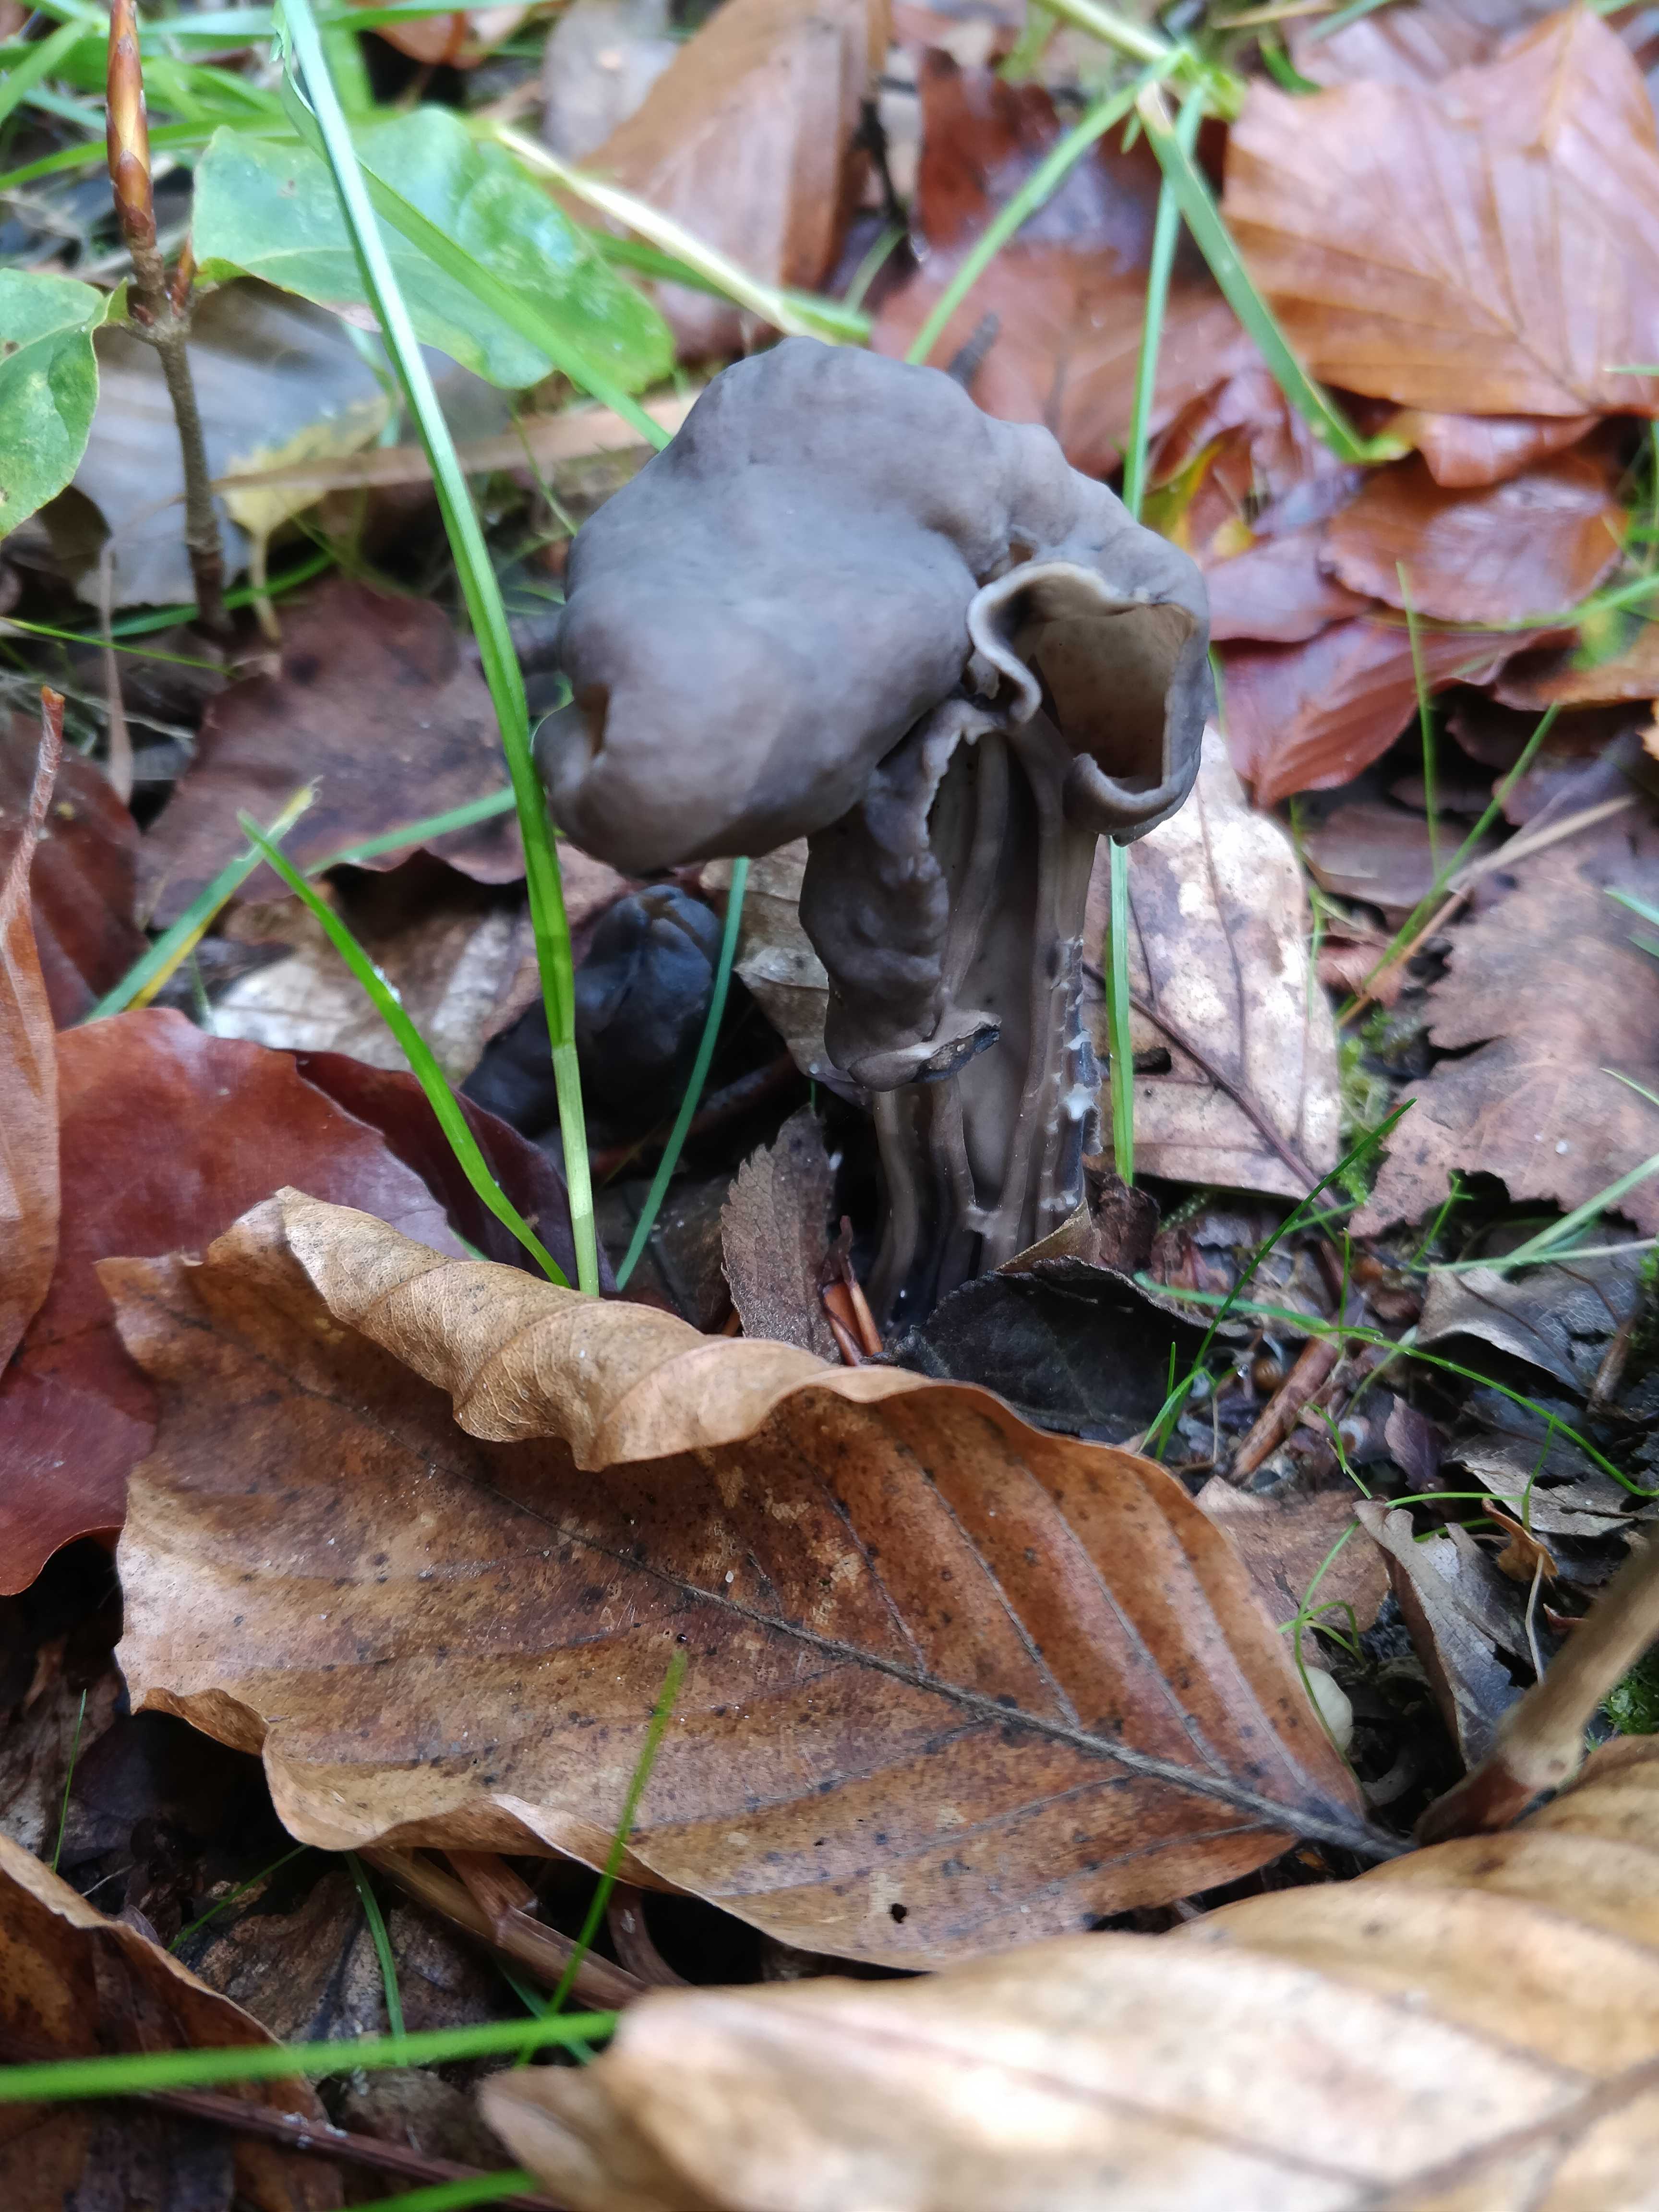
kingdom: Fungi
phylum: Ascomycota
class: Pezizomycetes
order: Pezizales
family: Helvellaceae
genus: Helvella
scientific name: Helvella lacunosa
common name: grubet foldhat
